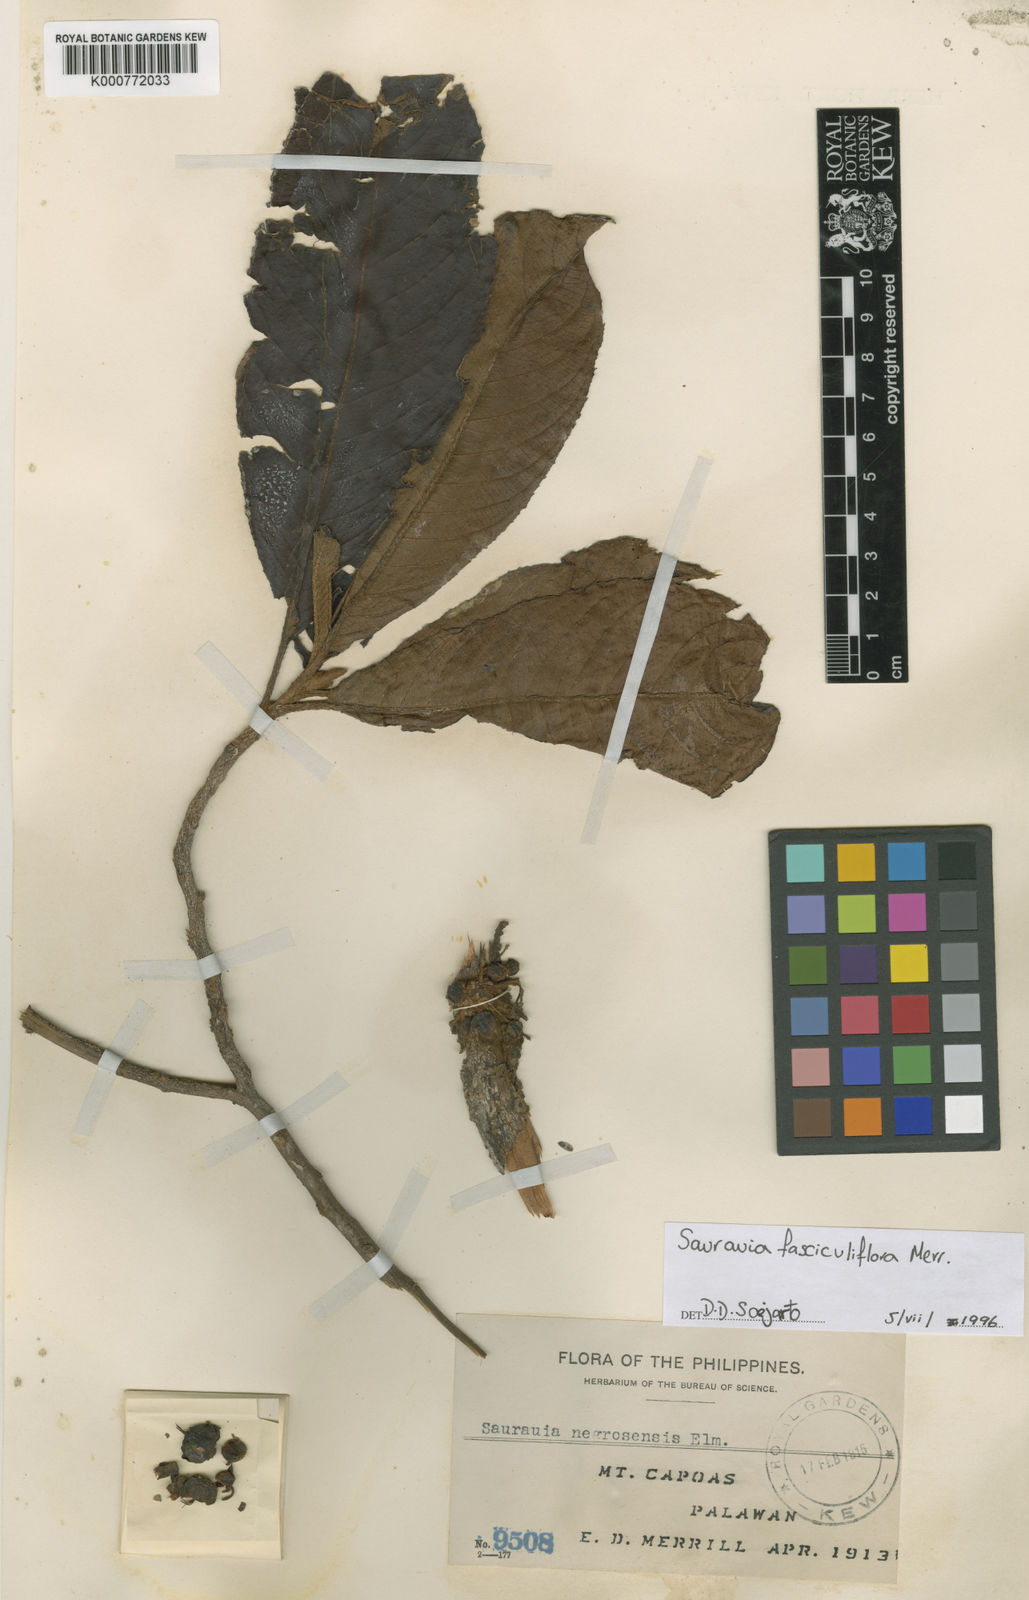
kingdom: Plantae
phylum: Tracheophyta
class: Magnoliopsida
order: Ericales
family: Actinidiaceae
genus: Saurauia
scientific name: Saurauia fasciculiflora
